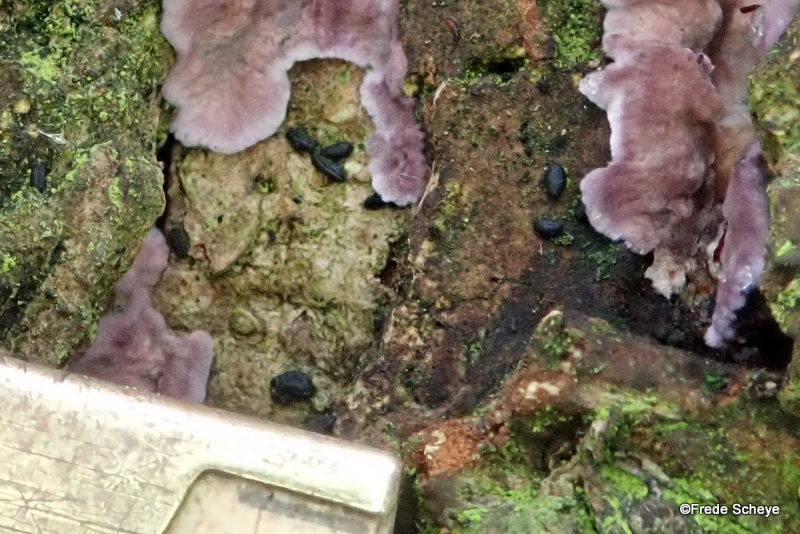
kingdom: Fungi
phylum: Ascomycota
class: Dothideomycetes
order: Hysteriales
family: Hysteriaceae
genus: Hysterium
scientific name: Hysterium pulicare
